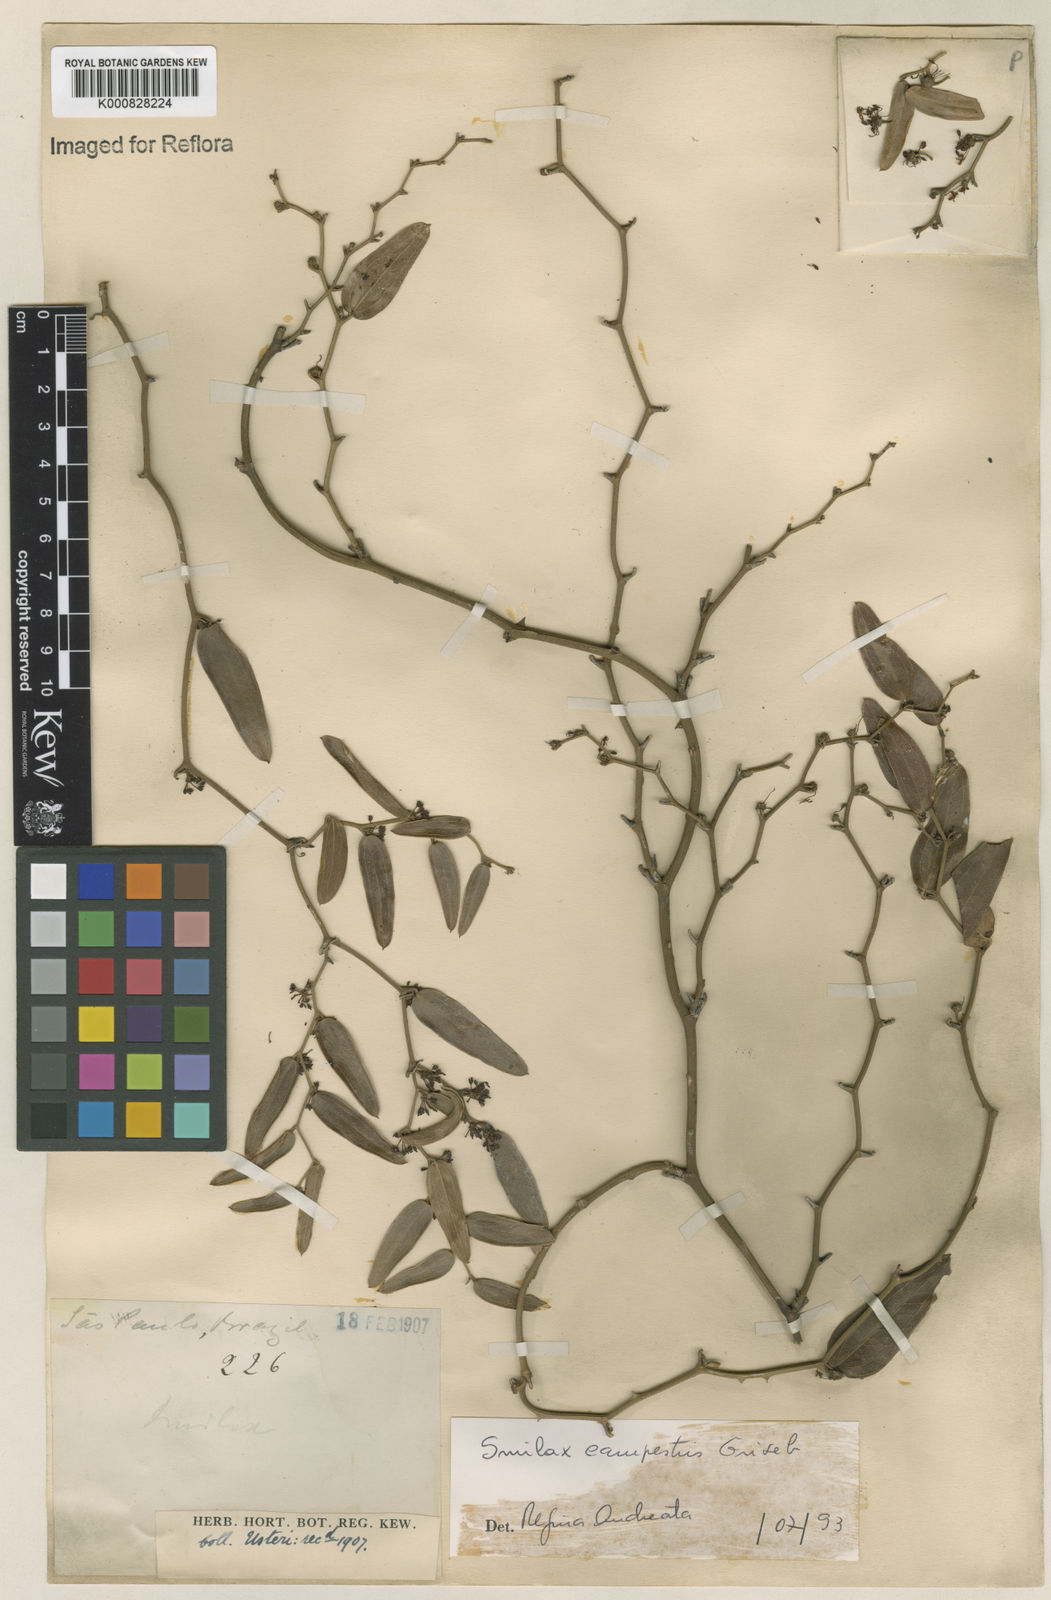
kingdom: Plantae
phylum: Tracheophyta
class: Liliopsida
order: Liliales
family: Smilacaceae
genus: Smilax
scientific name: Smilax campestris
